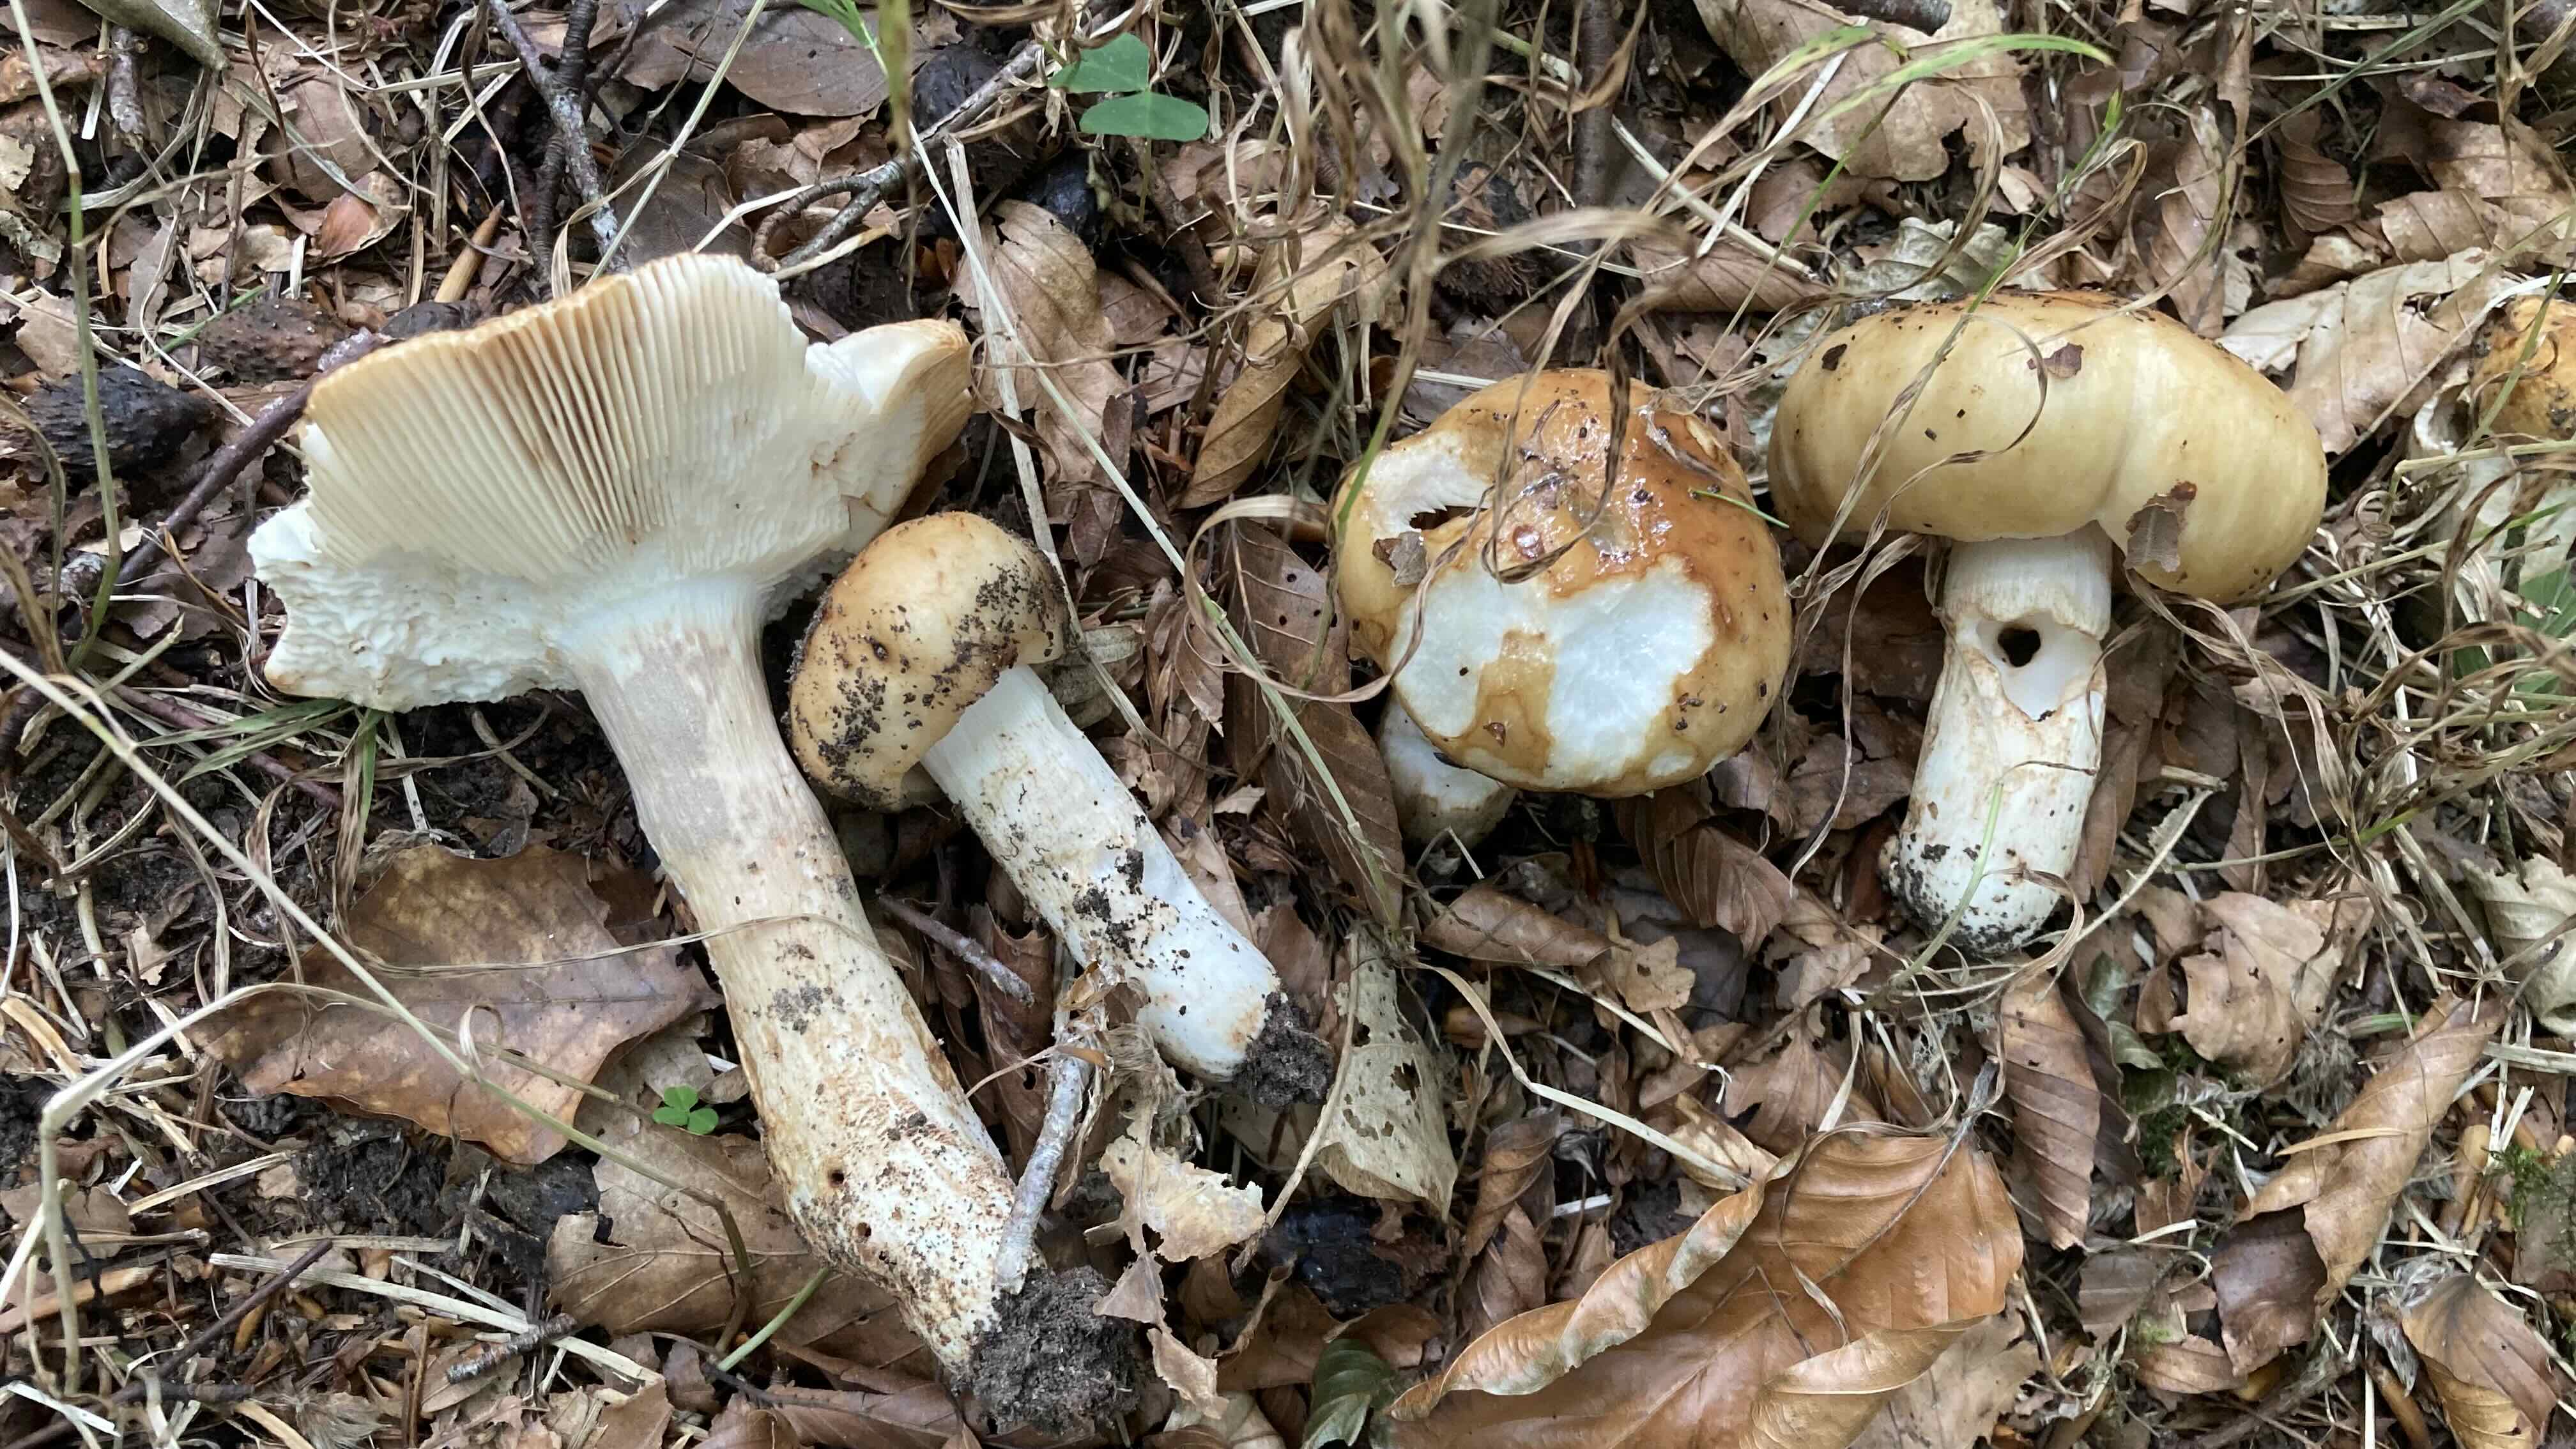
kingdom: Fungi
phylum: Basidiomycota
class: Agaricomycetes
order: Russulales
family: Russulaceae
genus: Russula
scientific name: Russula grata
